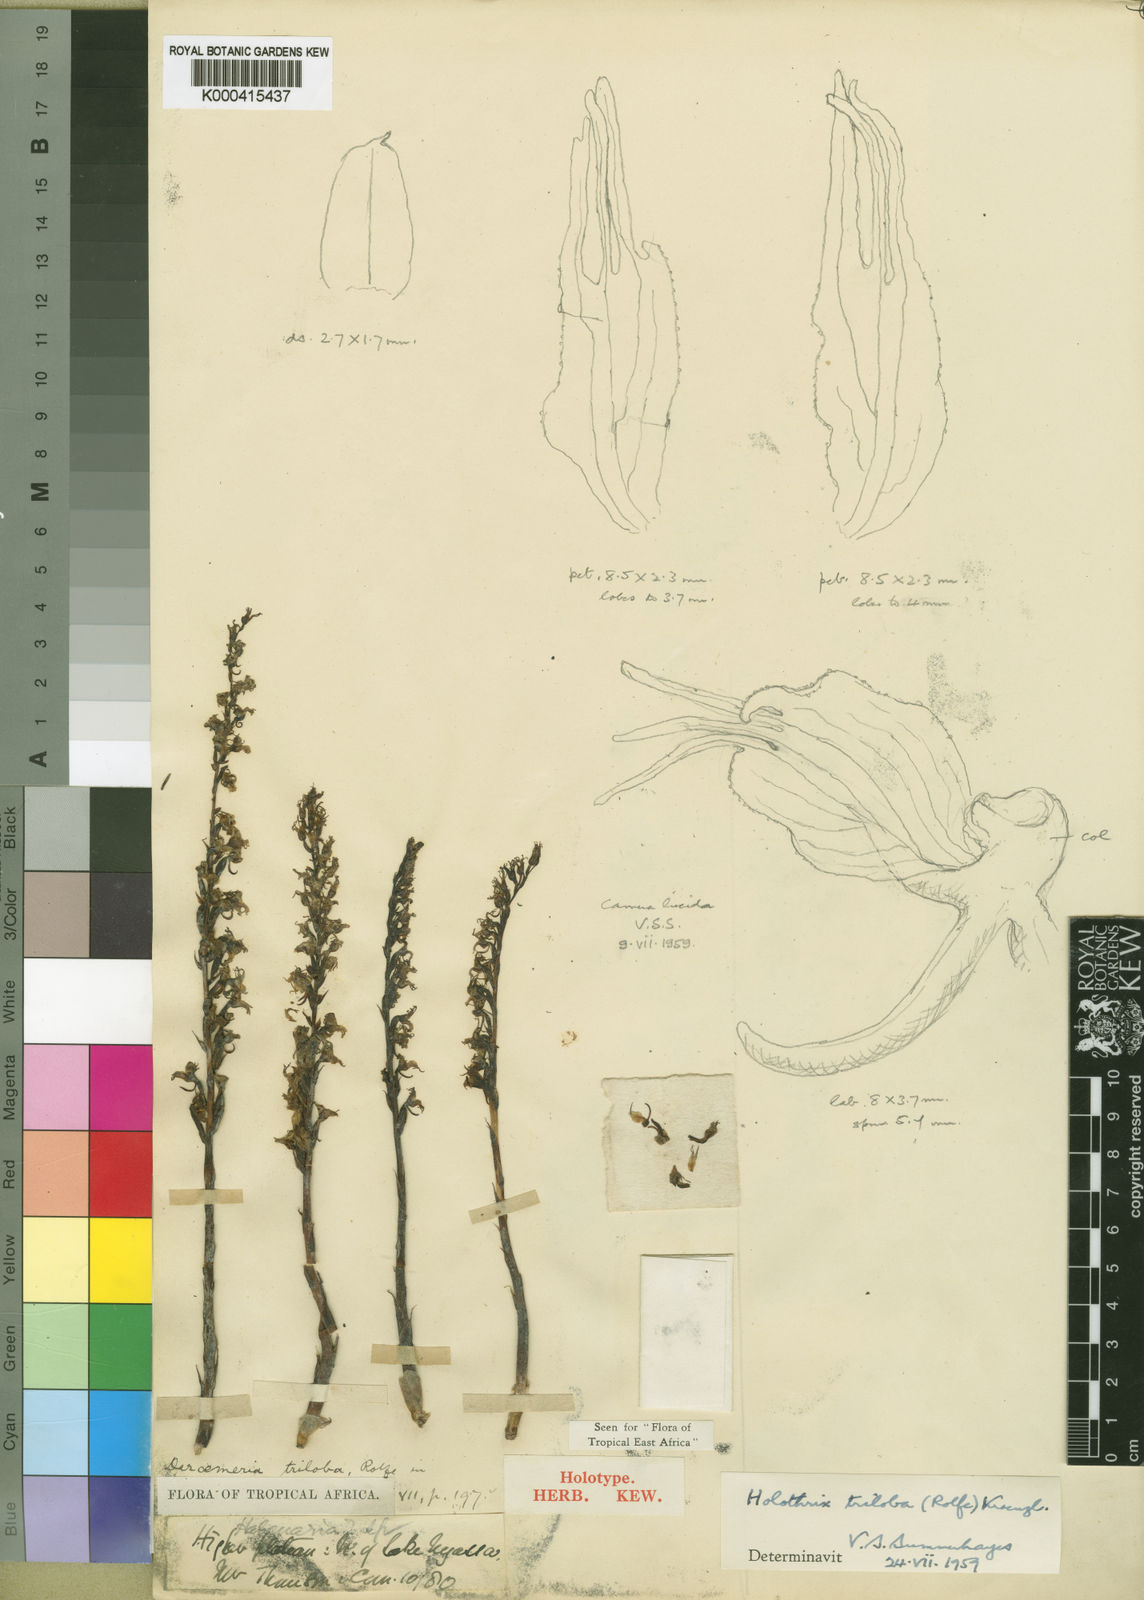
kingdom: Plantae
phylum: Tracheophyta
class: Liliopsida
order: Asparagales
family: Orchidaceae
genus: Holothrix
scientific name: Holothrix triloba
